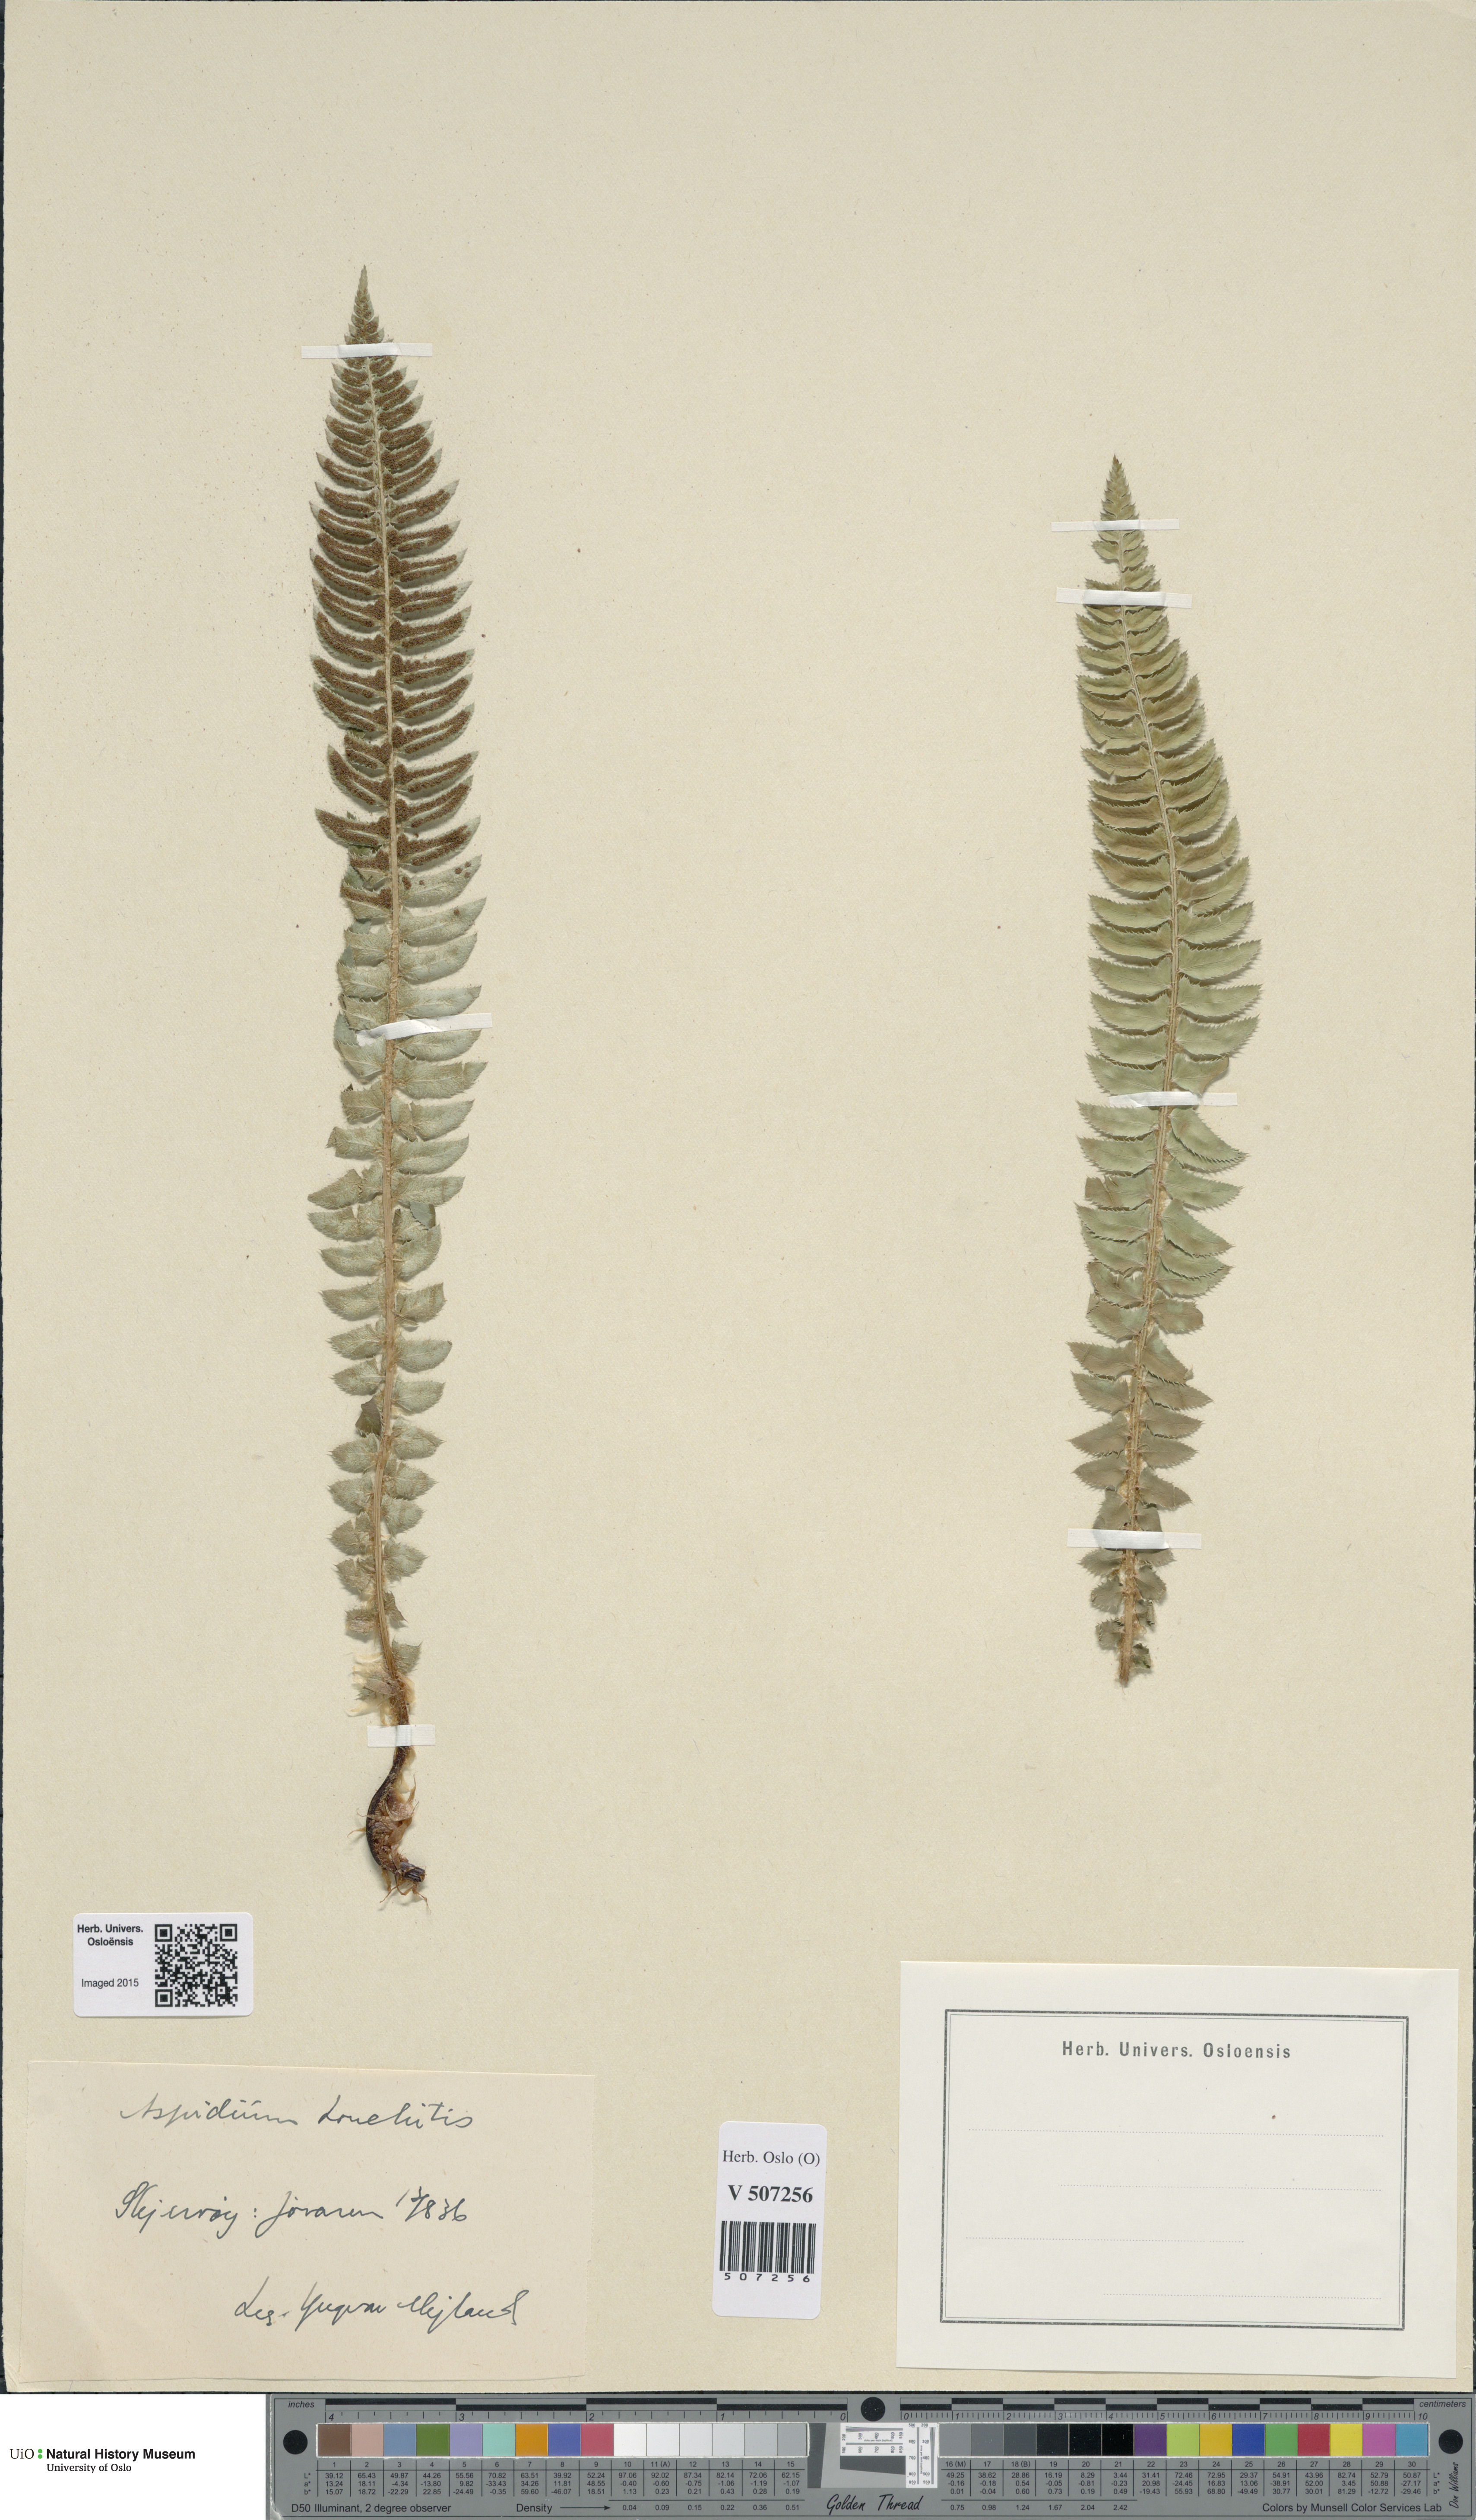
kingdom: Plantae
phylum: Tracheophyta
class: Polypodiopsida
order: Polypodiales
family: Dryopteridaceae
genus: Polystichum
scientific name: Polystichum lonchitis
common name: Holly fern
